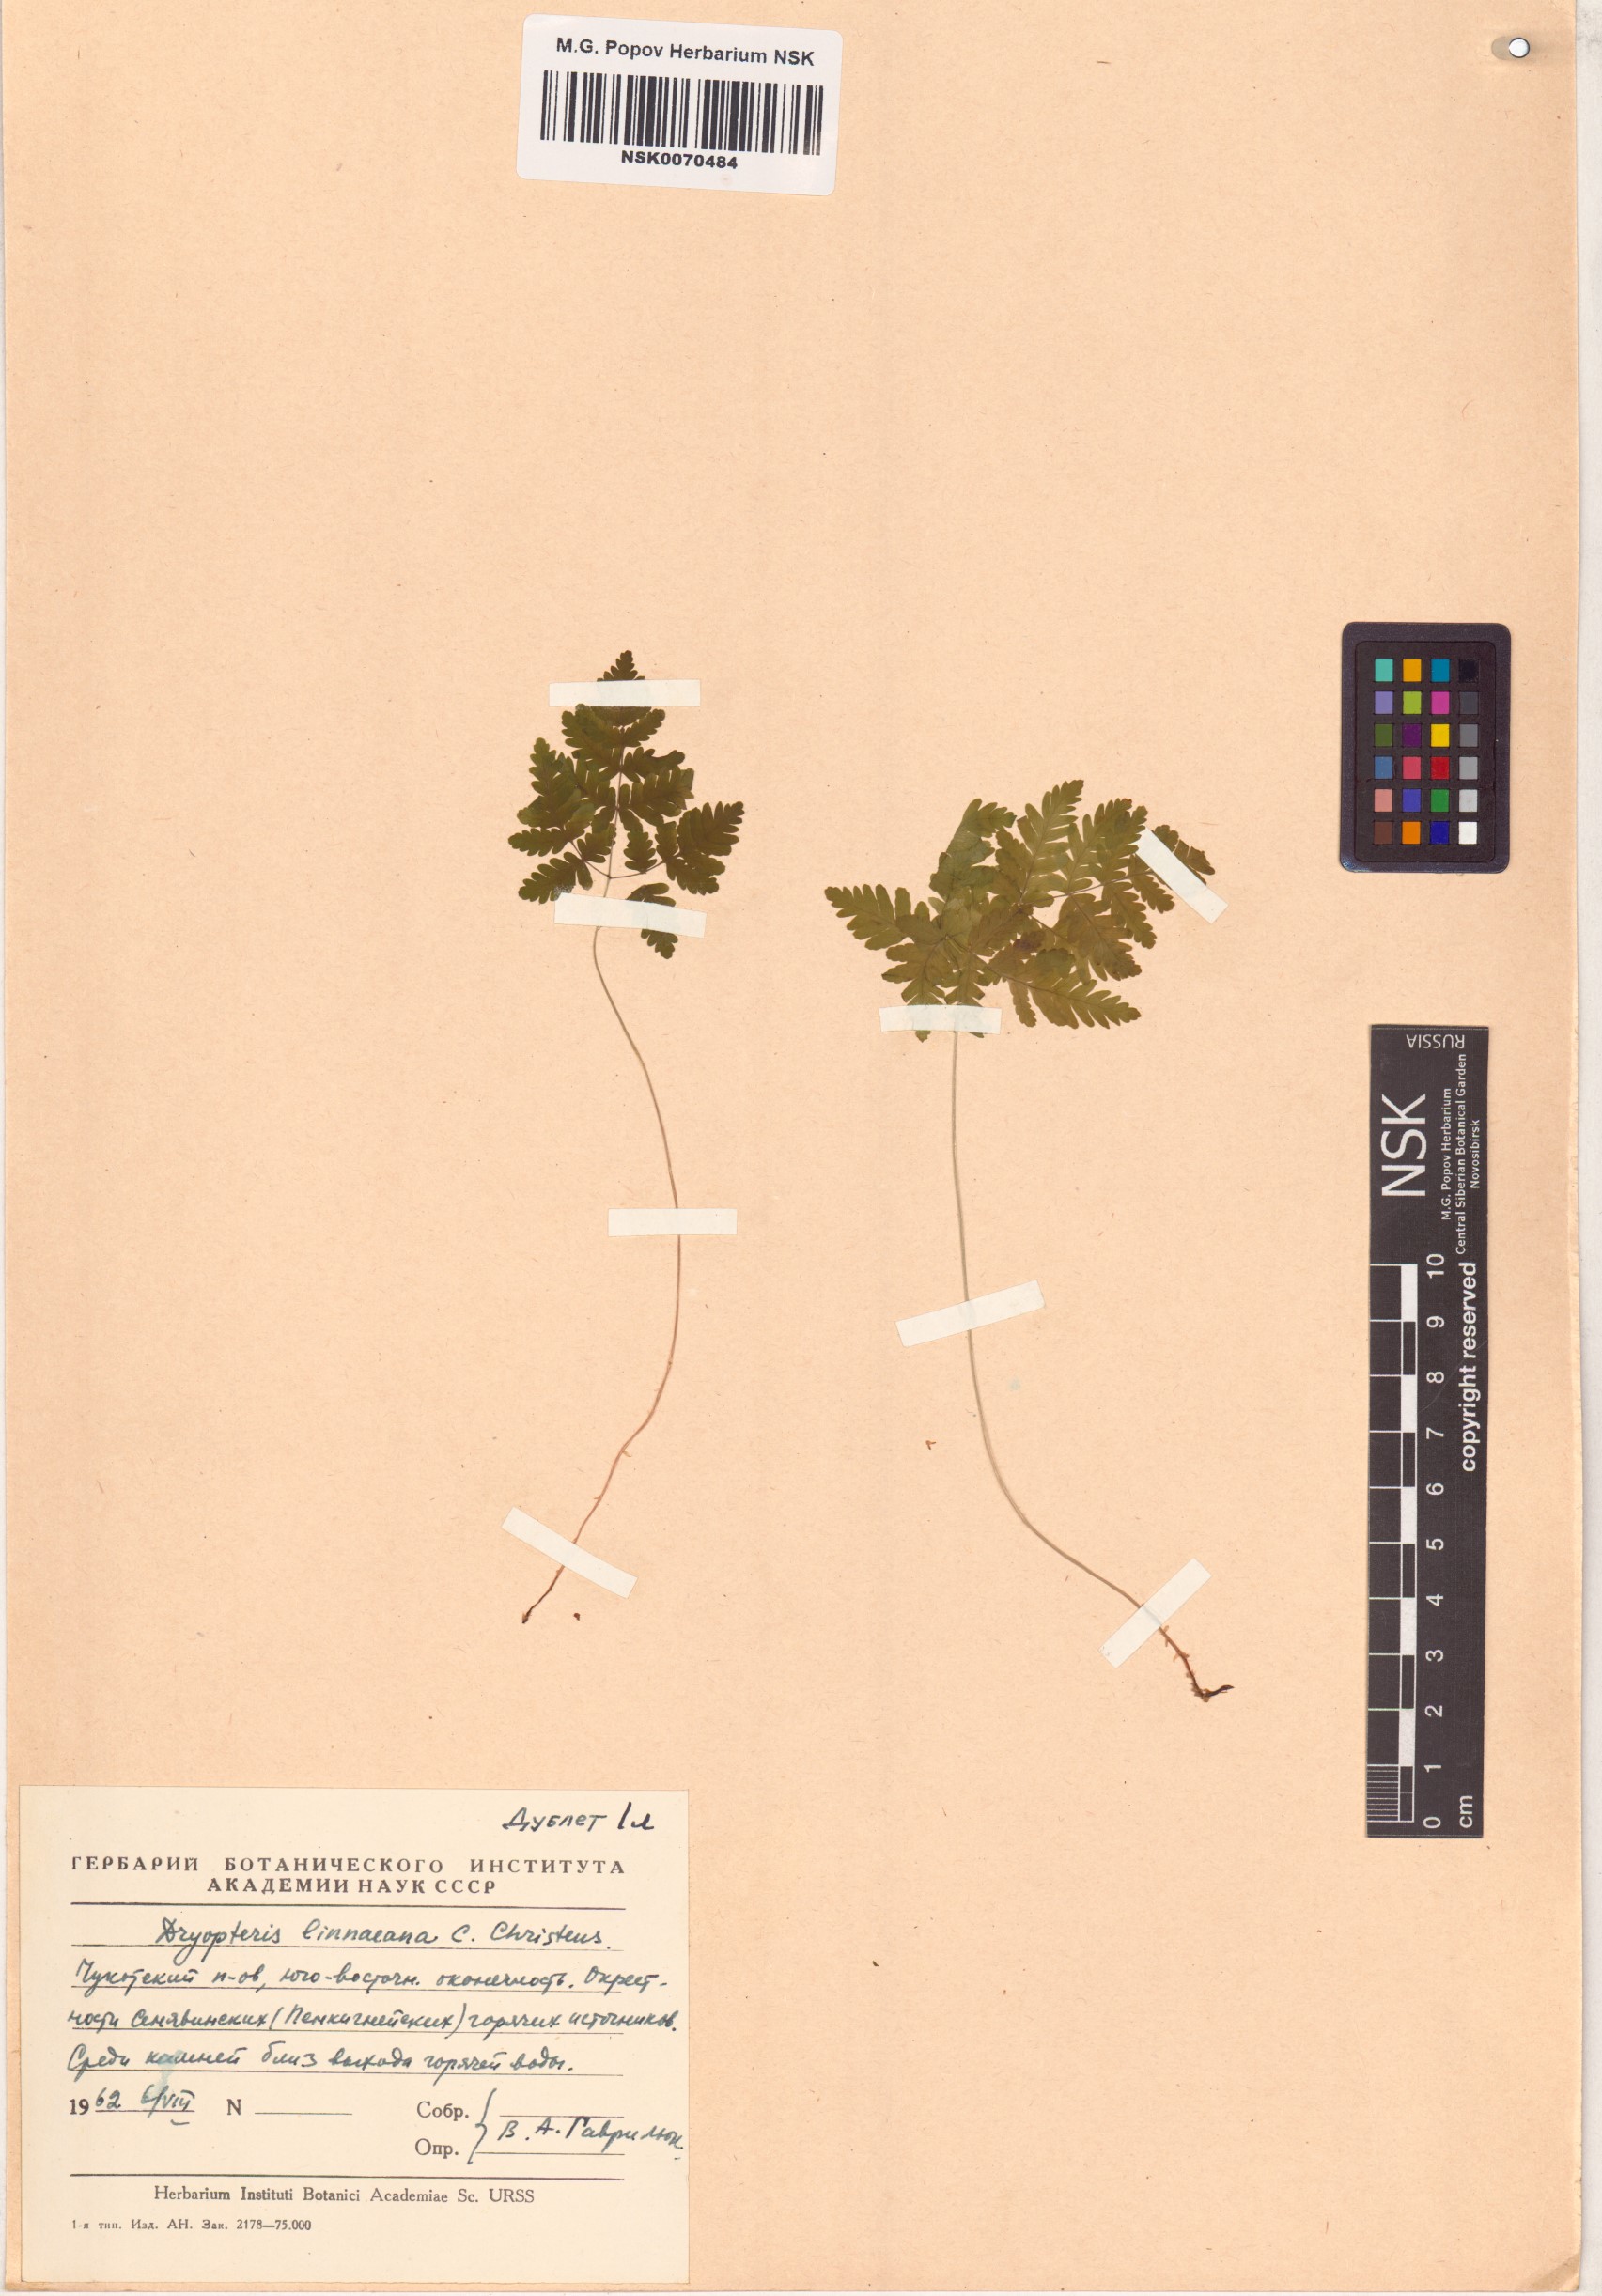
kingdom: Plantae
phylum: Tracheophyta
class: Polypodiopsida
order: Polypodiales
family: Cystopteridaceae
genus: Gymnocarpium
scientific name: Gymnocarpium dryopteris
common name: Oak fern
